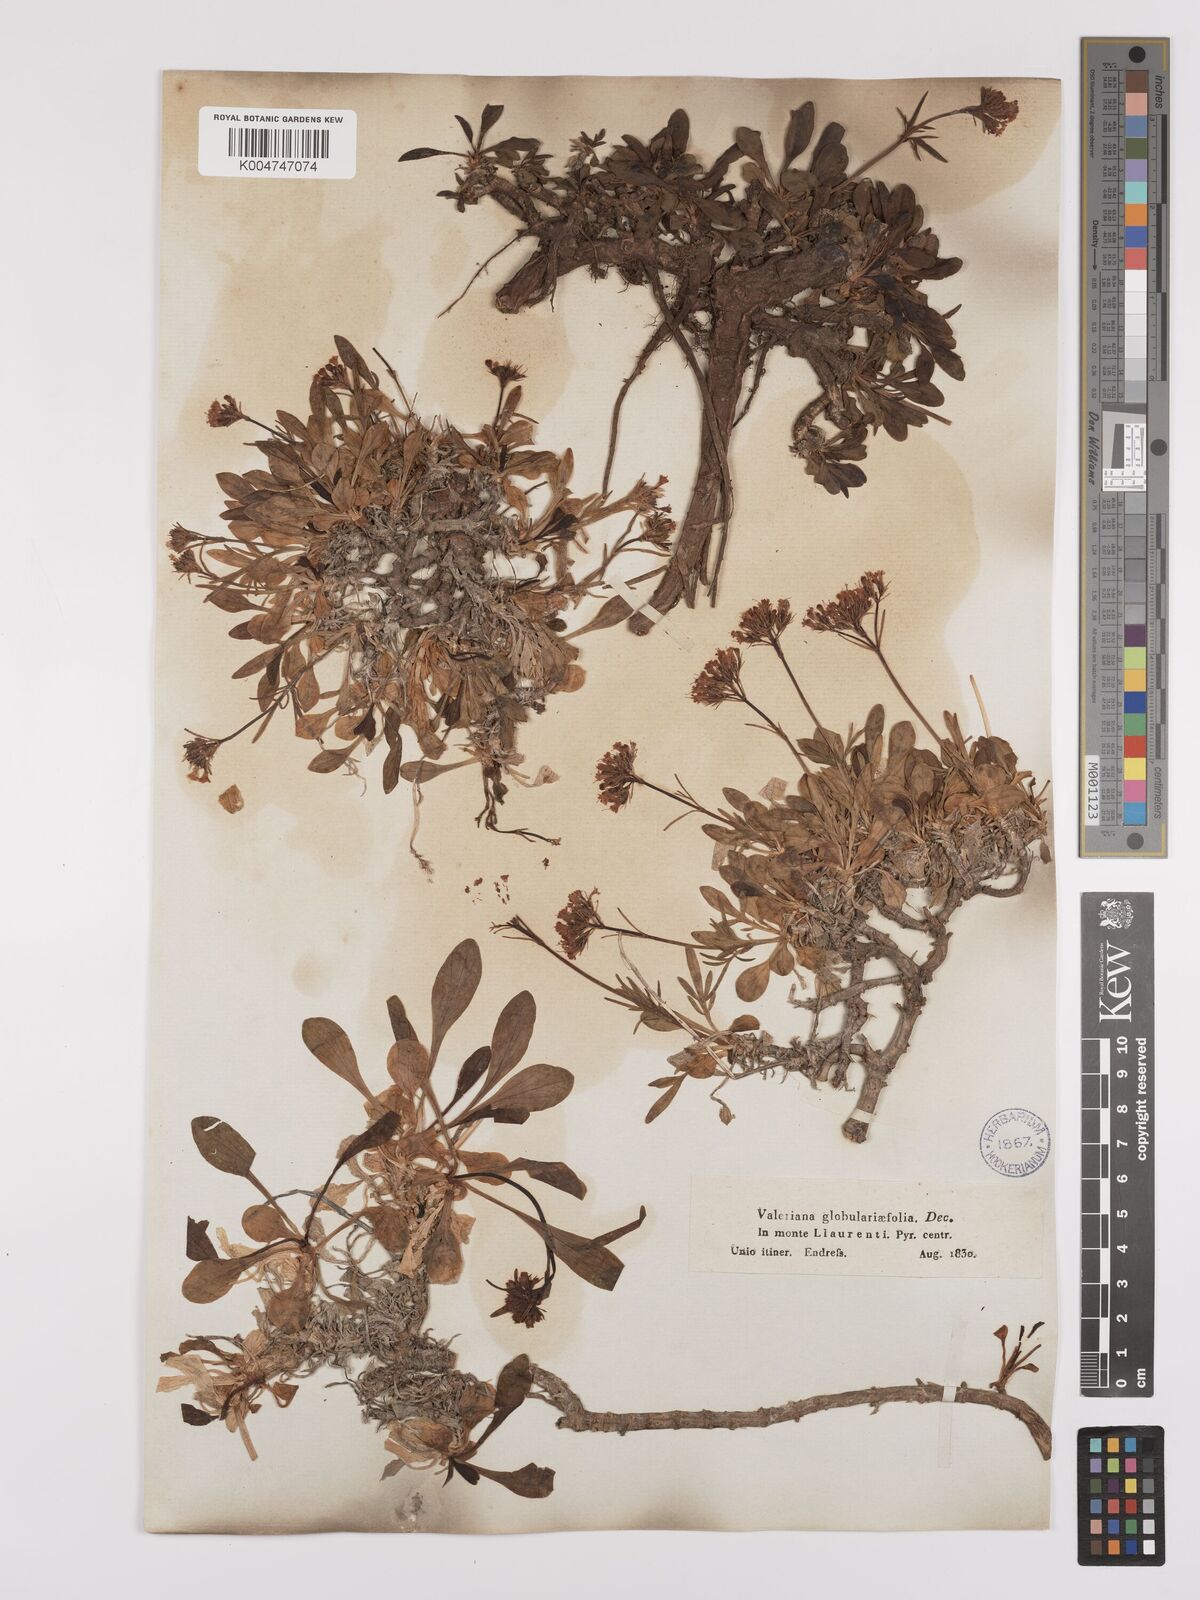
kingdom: Plantae
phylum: Tracheophyta
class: Magnoliopsida
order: Dipsacales
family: Caprifoliaceae
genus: Valeriana
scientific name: Valeriana apula
